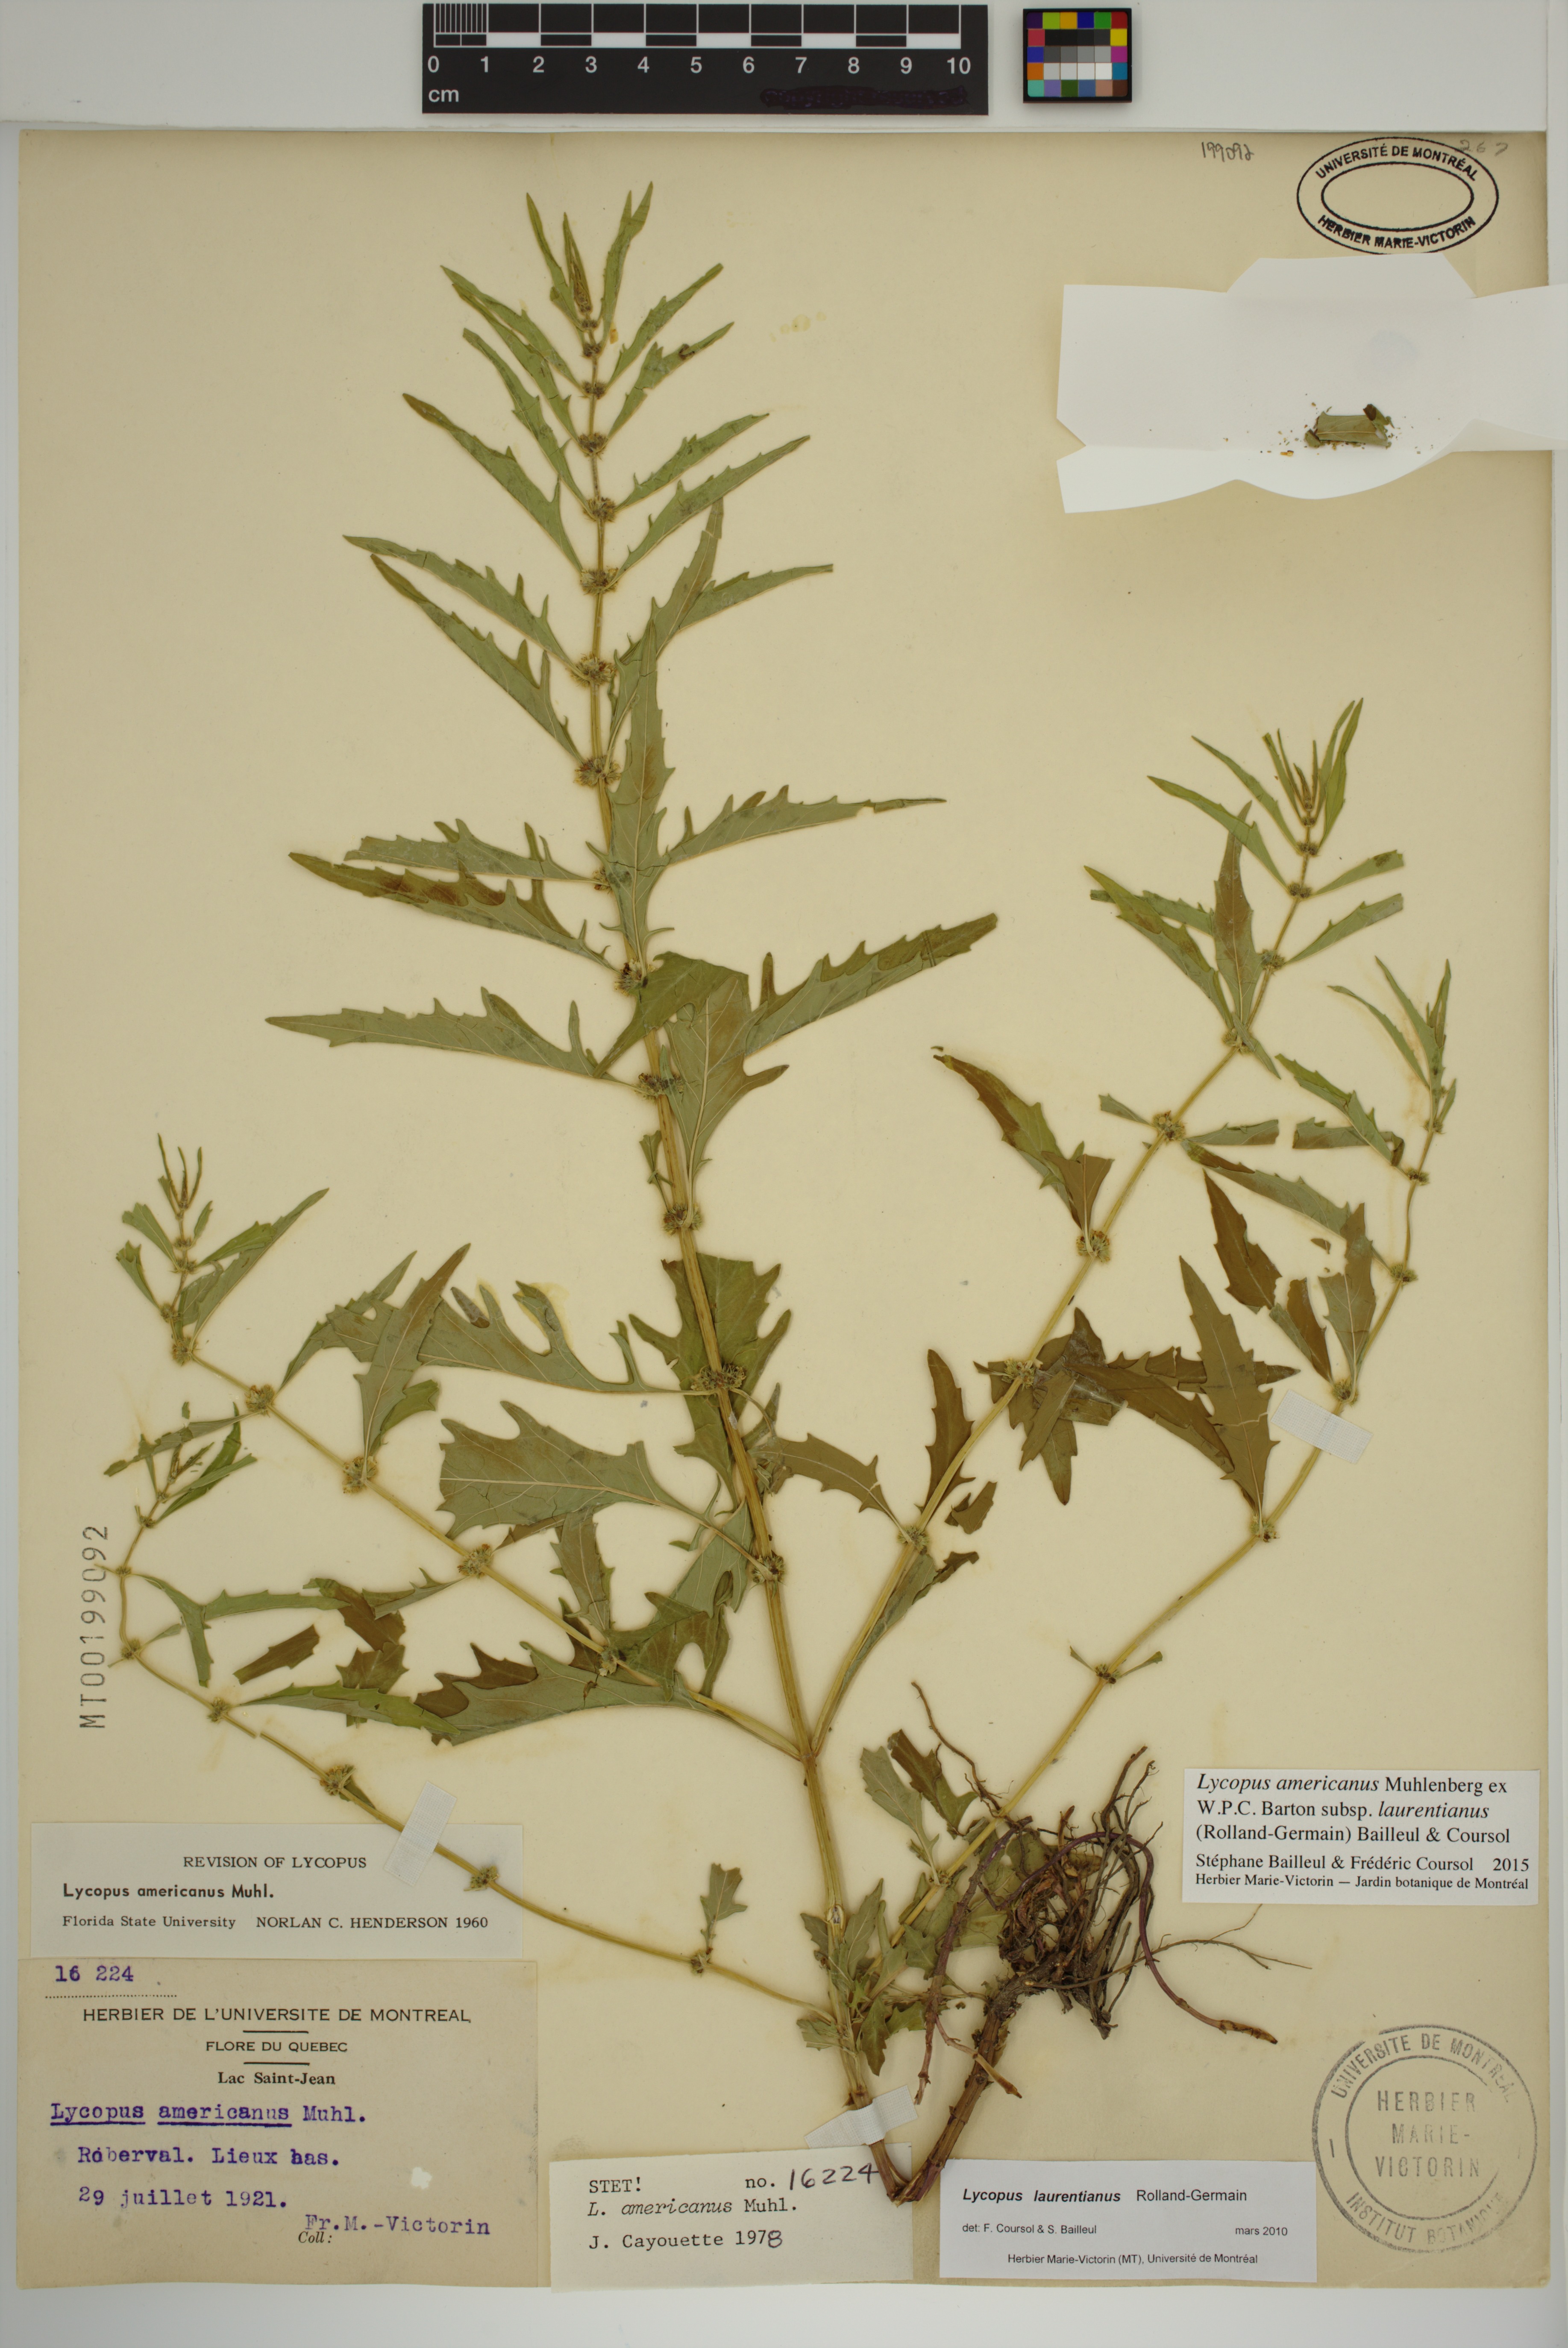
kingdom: Plantae
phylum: Tracheophyta
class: Magnoliopsida
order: Lamiales
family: Lamiaceae
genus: Lycopus
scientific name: Lycopus americanus
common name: American bugleweed
